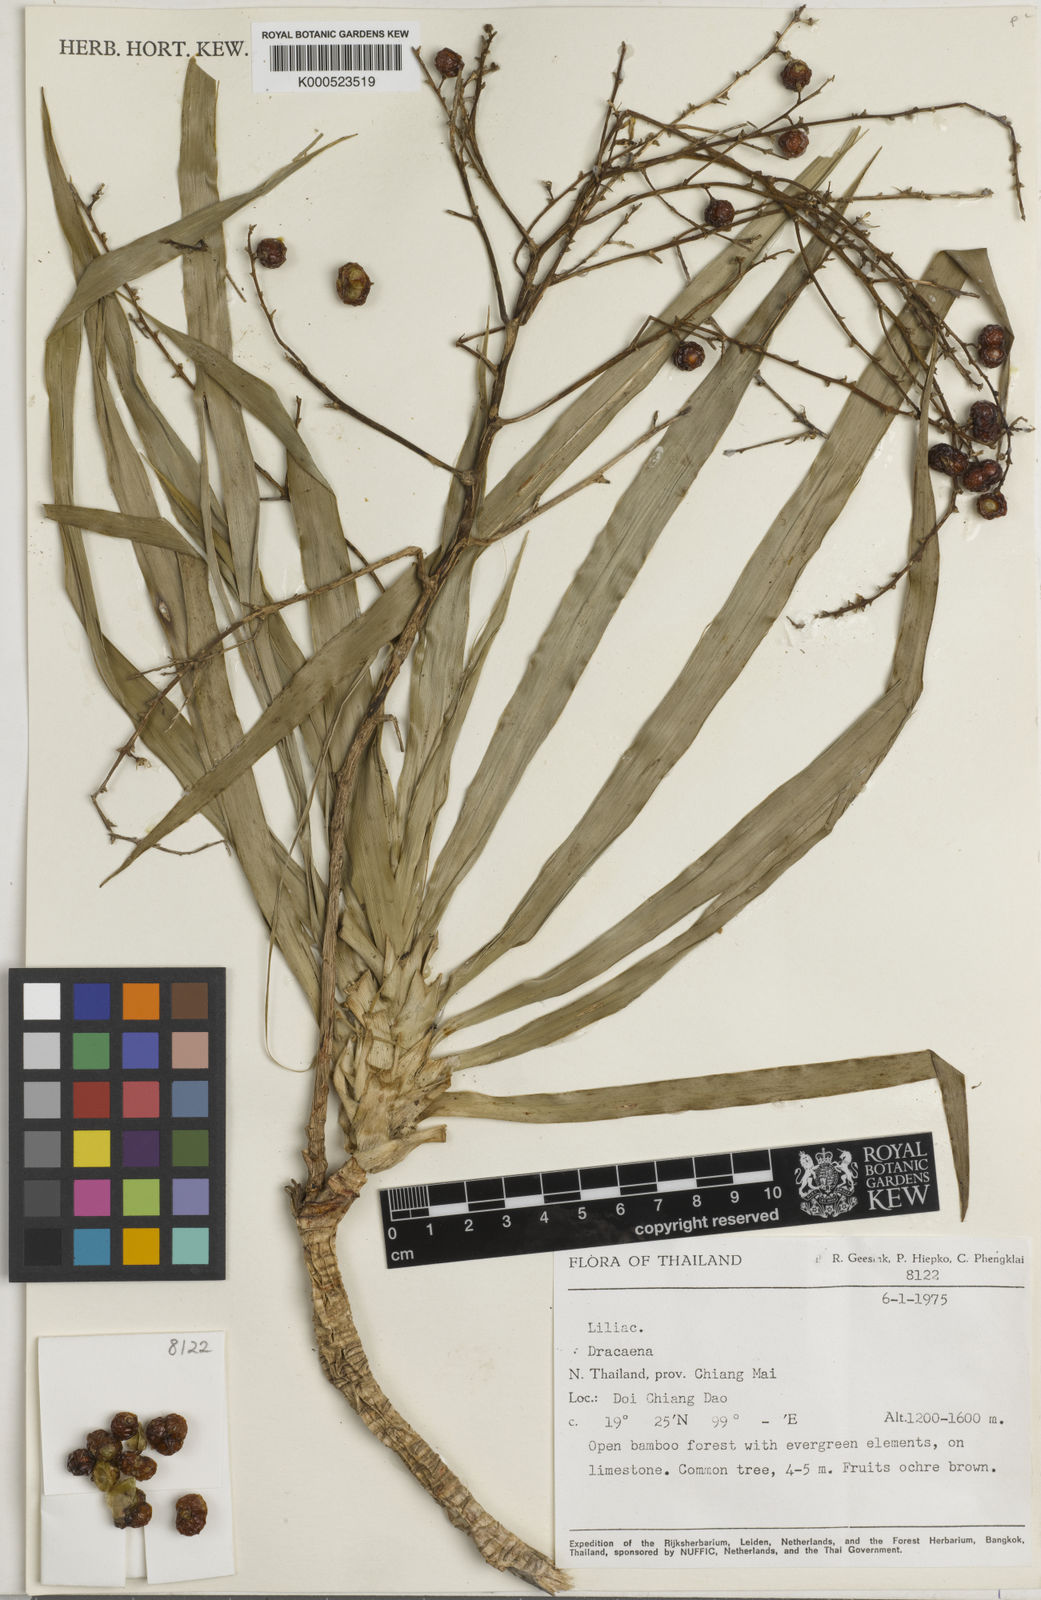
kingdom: Plantae
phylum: Tracheophyta
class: Liliopsida
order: Asparagales
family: Asparagaceae
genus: Dracaena
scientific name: Dracaena
